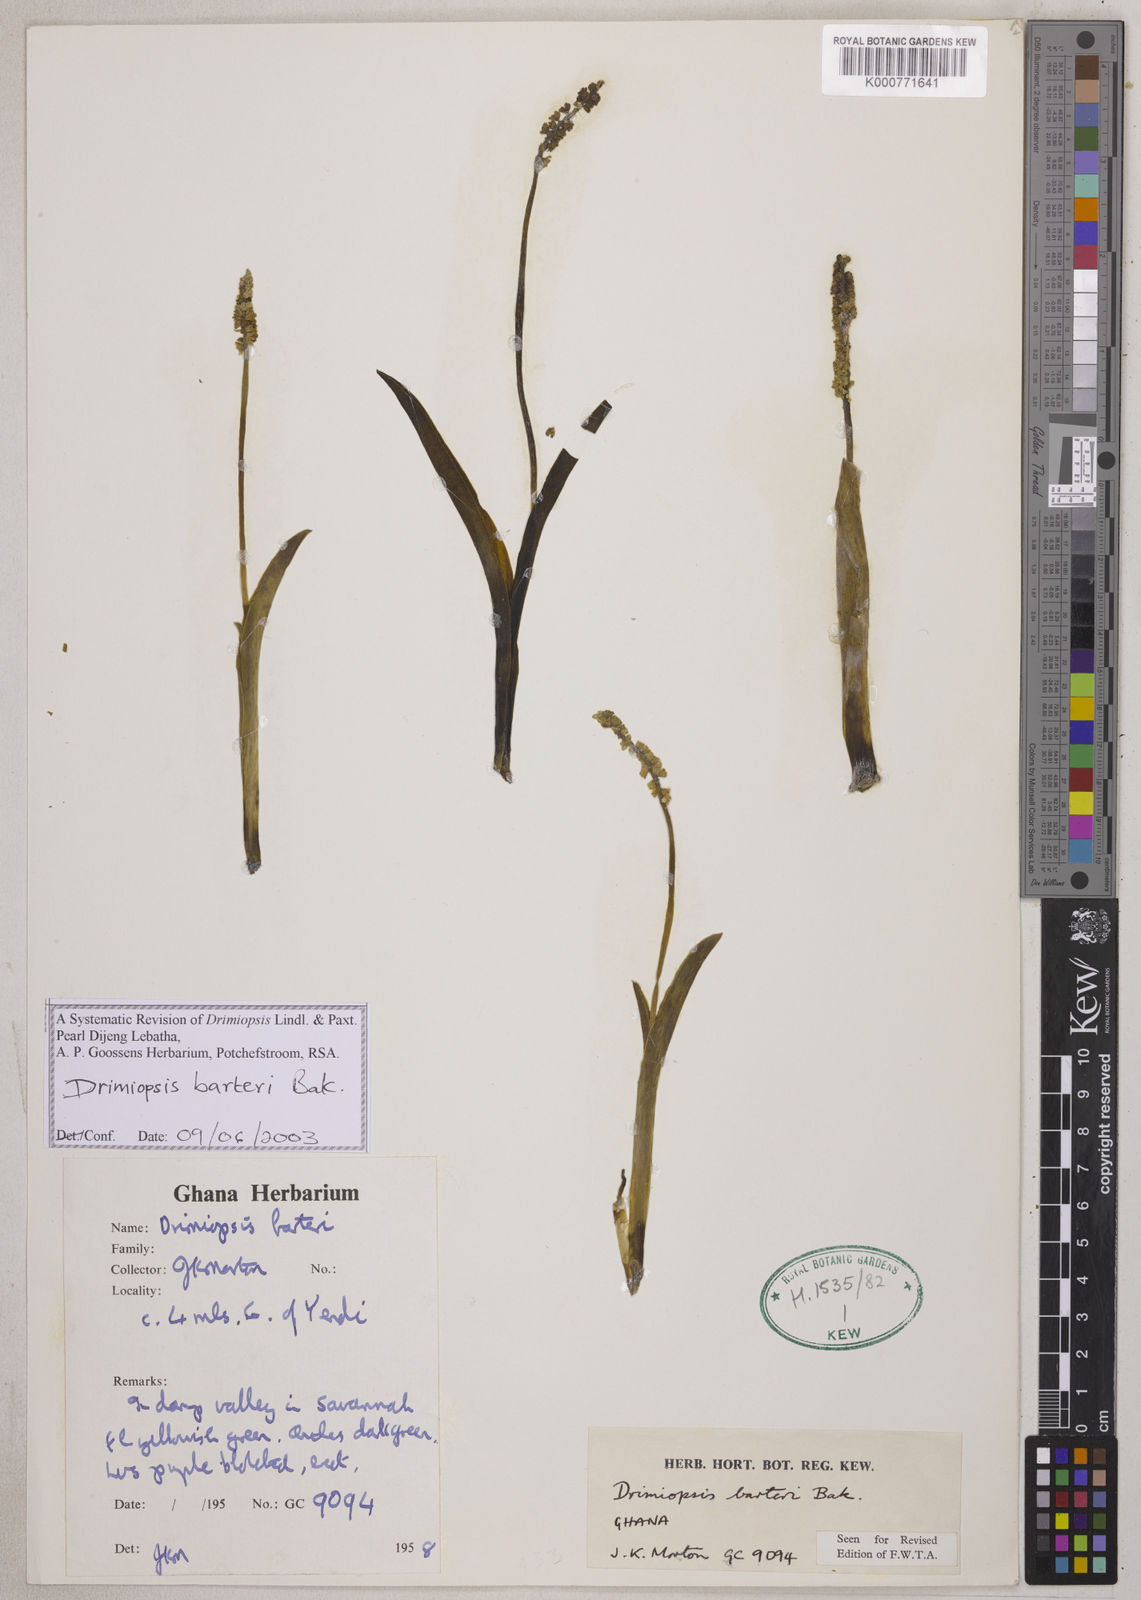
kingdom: Plantae
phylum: Tracheophyta
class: Liliopsida
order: Asparagales
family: Asparagaceae
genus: Drimiopsis
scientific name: Drimiopsis barteri
